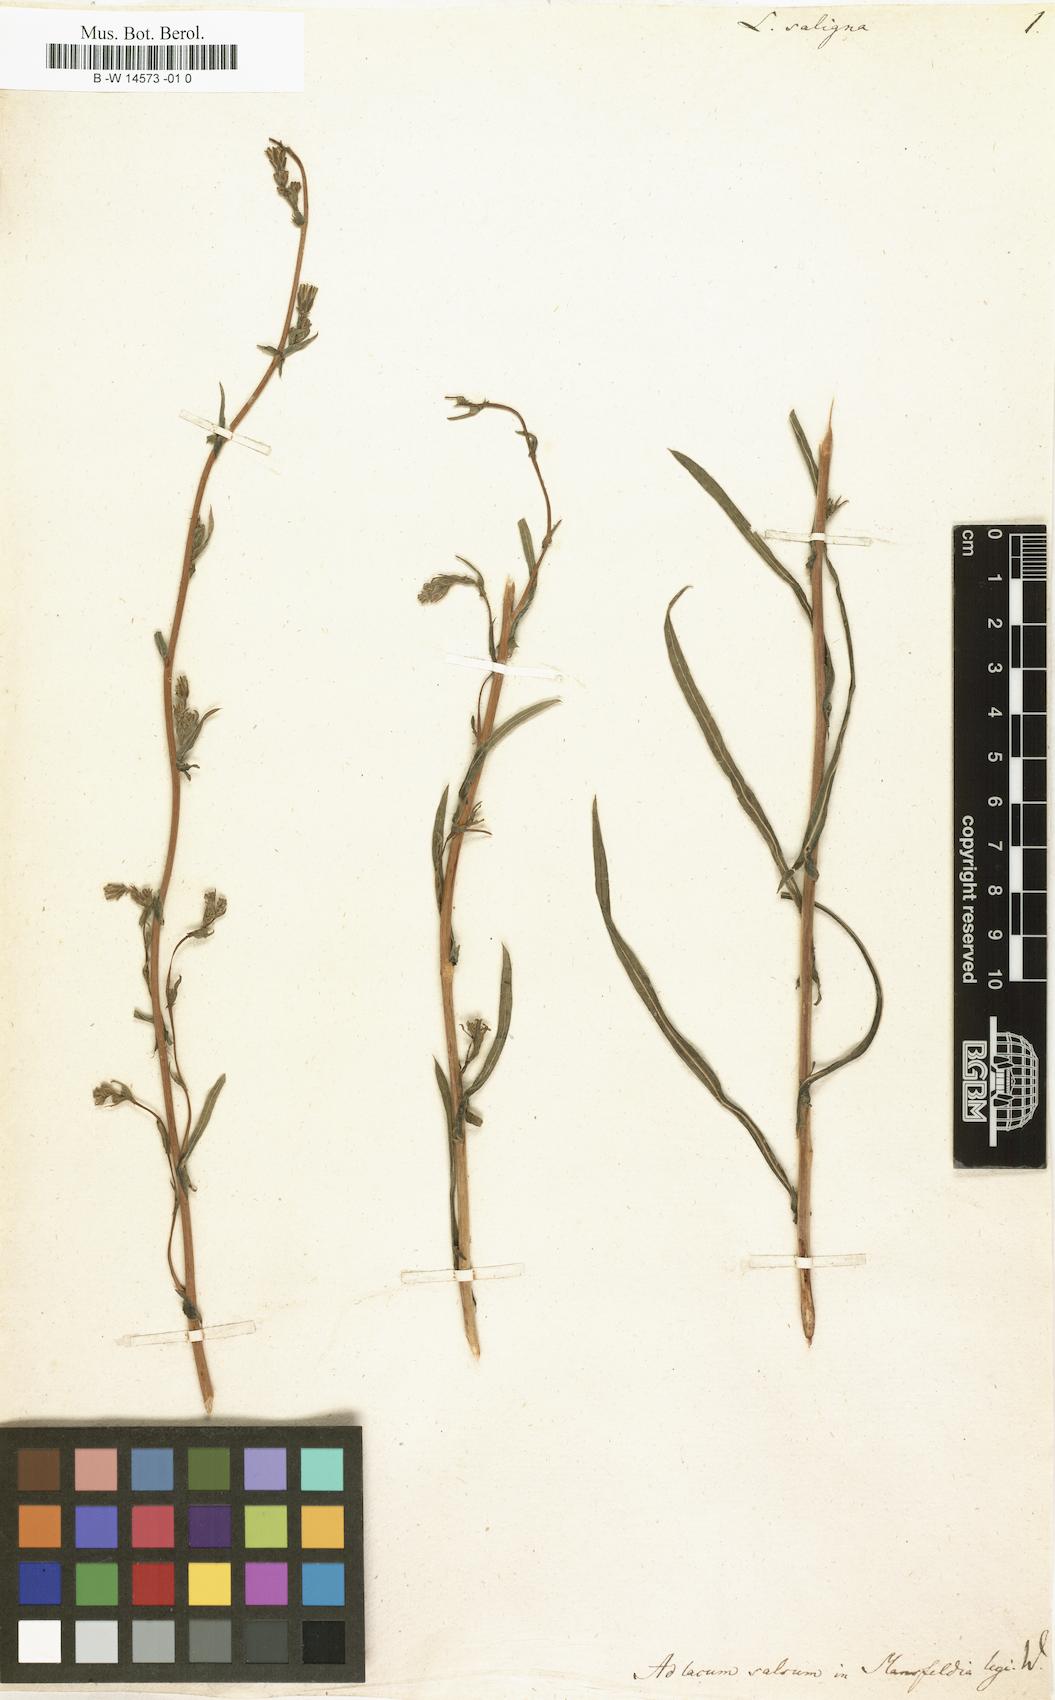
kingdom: Plantae
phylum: Tracheophyta
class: Magnoliopsida
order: Asterales
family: Asteraceae
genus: Lactuca
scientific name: Lactuca saligna
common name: Wild lettuce
